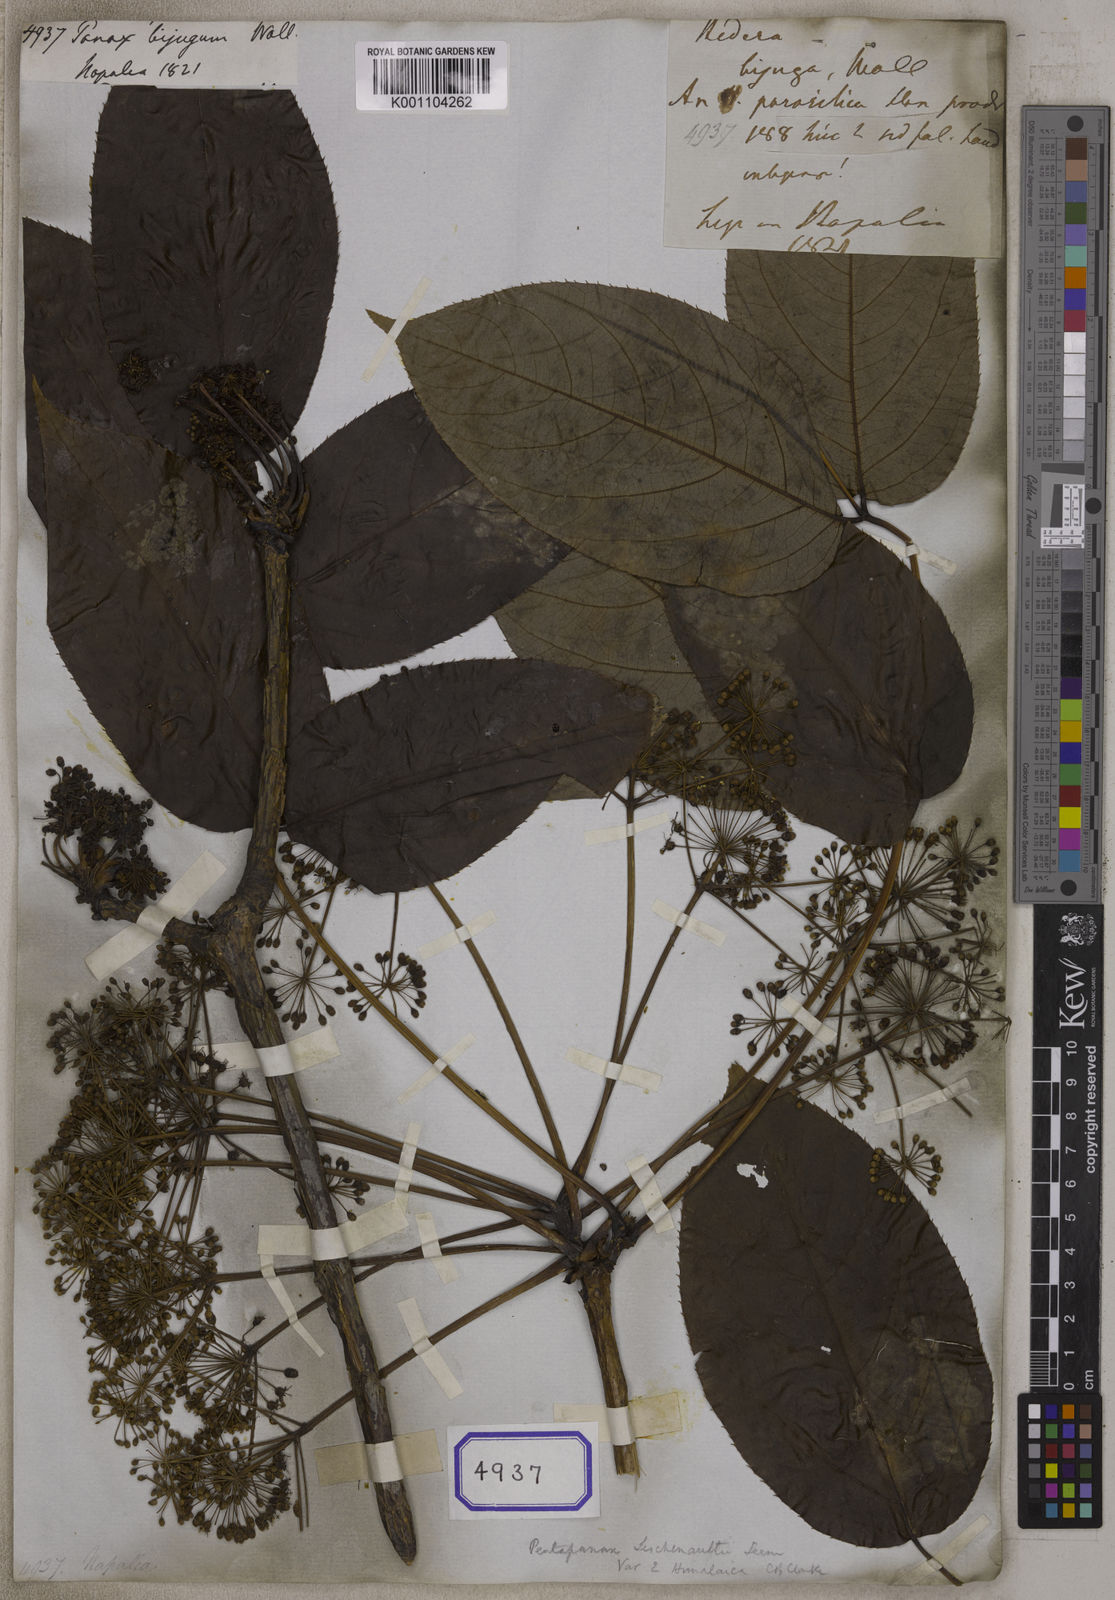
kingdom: Plantae
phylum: Tracheophyta
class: Magnoliopsida
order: Apiales
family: Araliaceae
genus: Panax
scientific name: Panax
